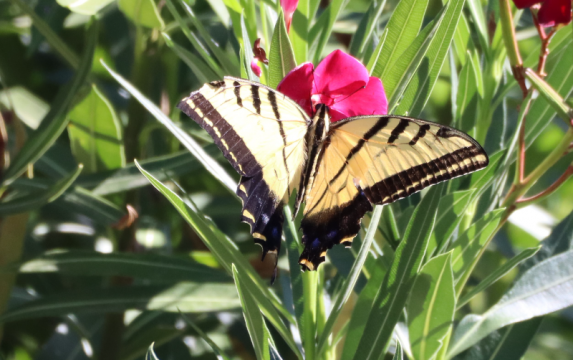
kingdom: Animalia
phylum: Arthropoda
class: Insecta
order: Lepidoptera
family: Papilionidae
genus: Papilio
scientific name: Papilio multicaudata
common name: Two-tailed Swallowtail
